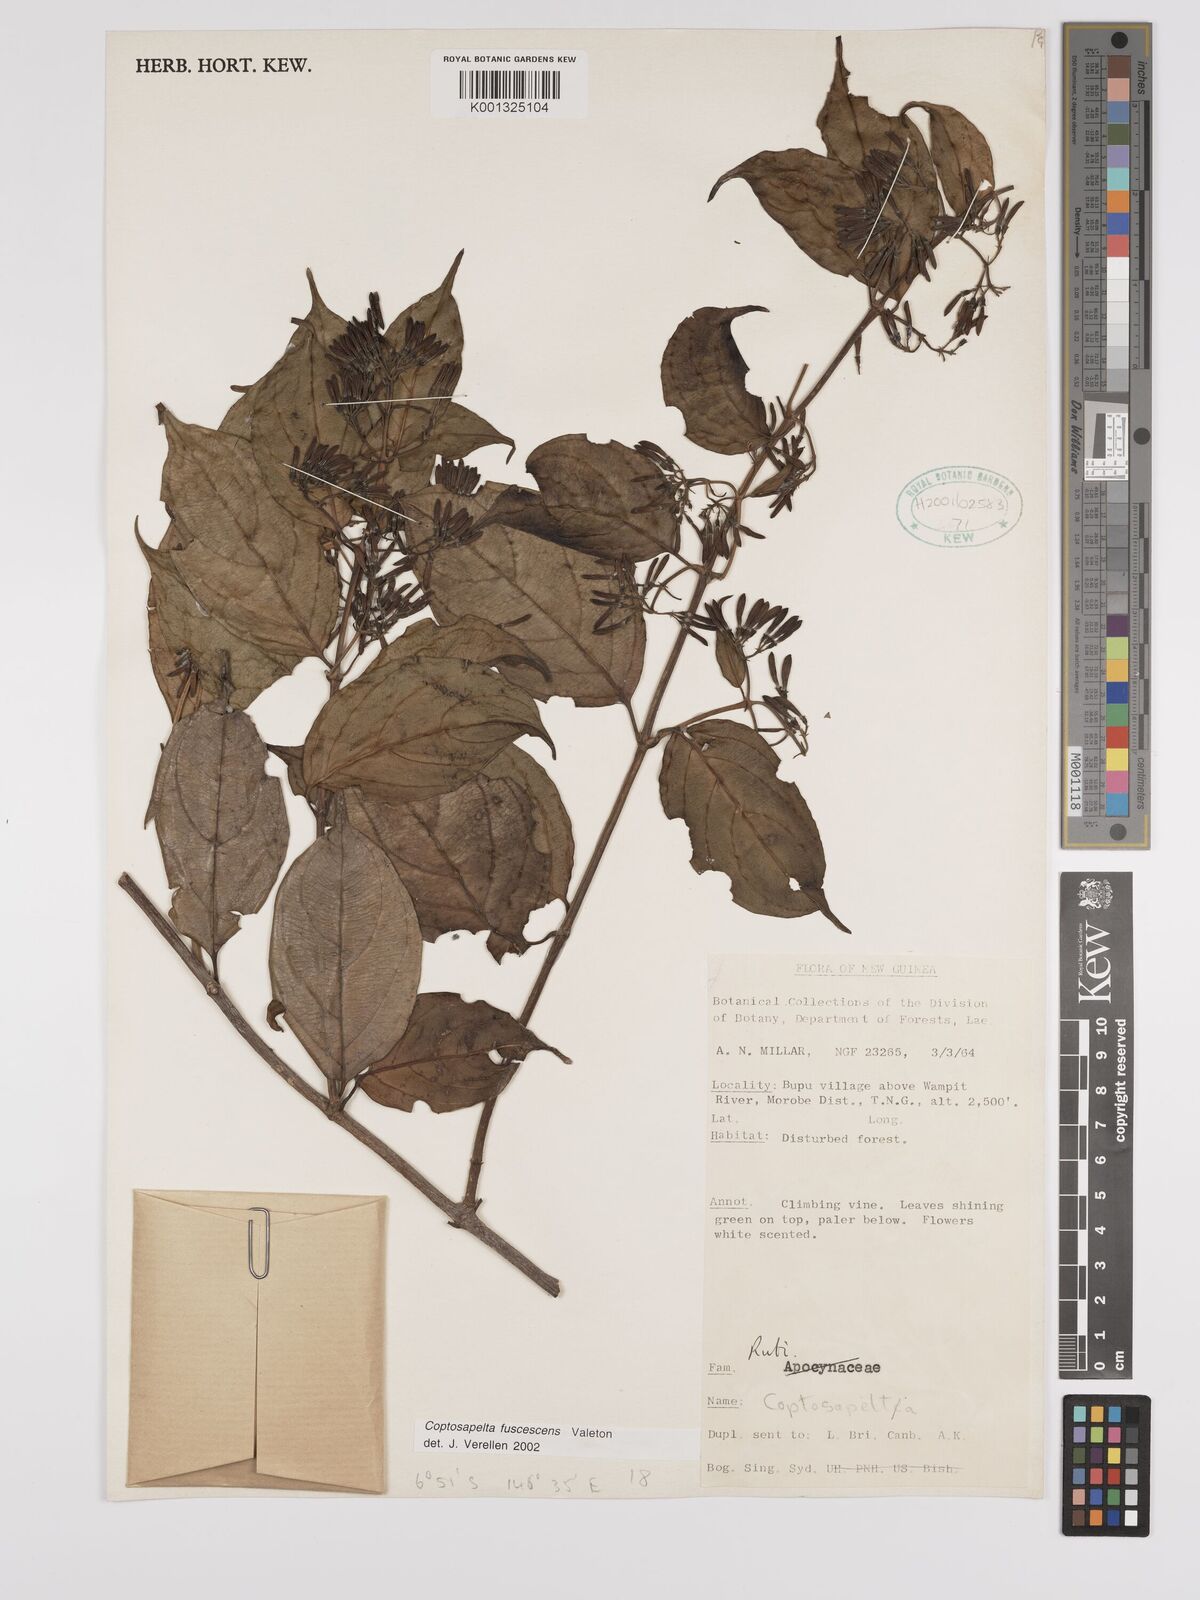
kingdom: Plantae
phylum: Tracheophyta
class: Magnoliopsida
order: Gentianales
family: Rubiaceae
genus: Coptosapelta
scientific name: Coptosapelta fuscescens
